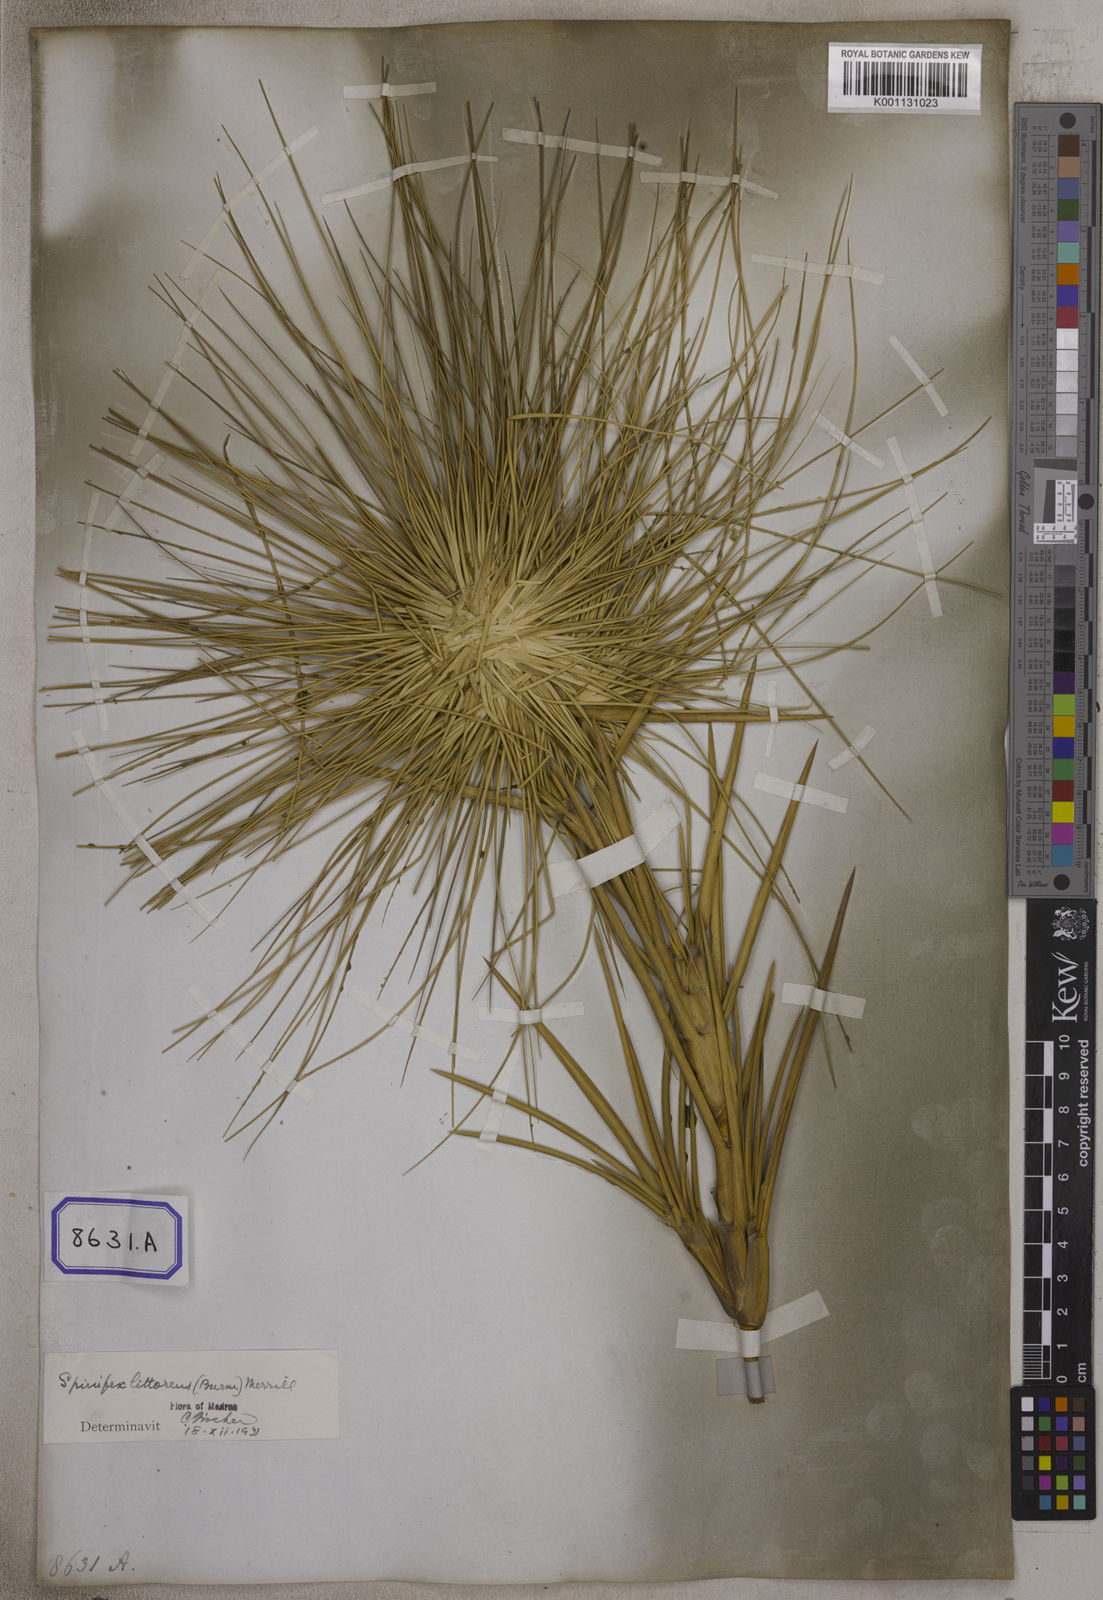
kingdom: Plantae
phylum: Tracheophyta
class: Liliopsida
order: Poales
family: Poaceae
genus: Spinifex
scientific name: Spinifex littoreus
